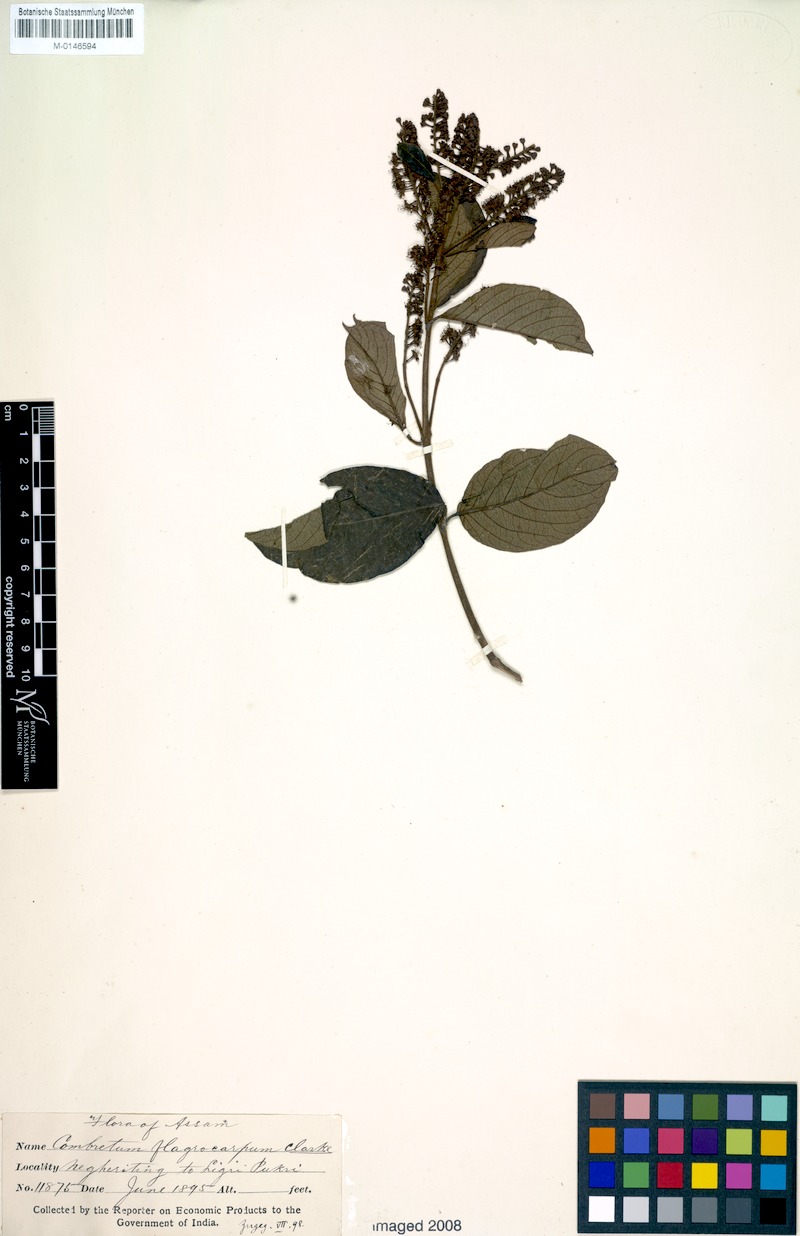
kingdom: Plantae
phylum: Tracheophyta
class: Magnoliopsida
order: Myrtales
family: Combretaceae
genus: Combretum
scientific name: Combretum wallichii
